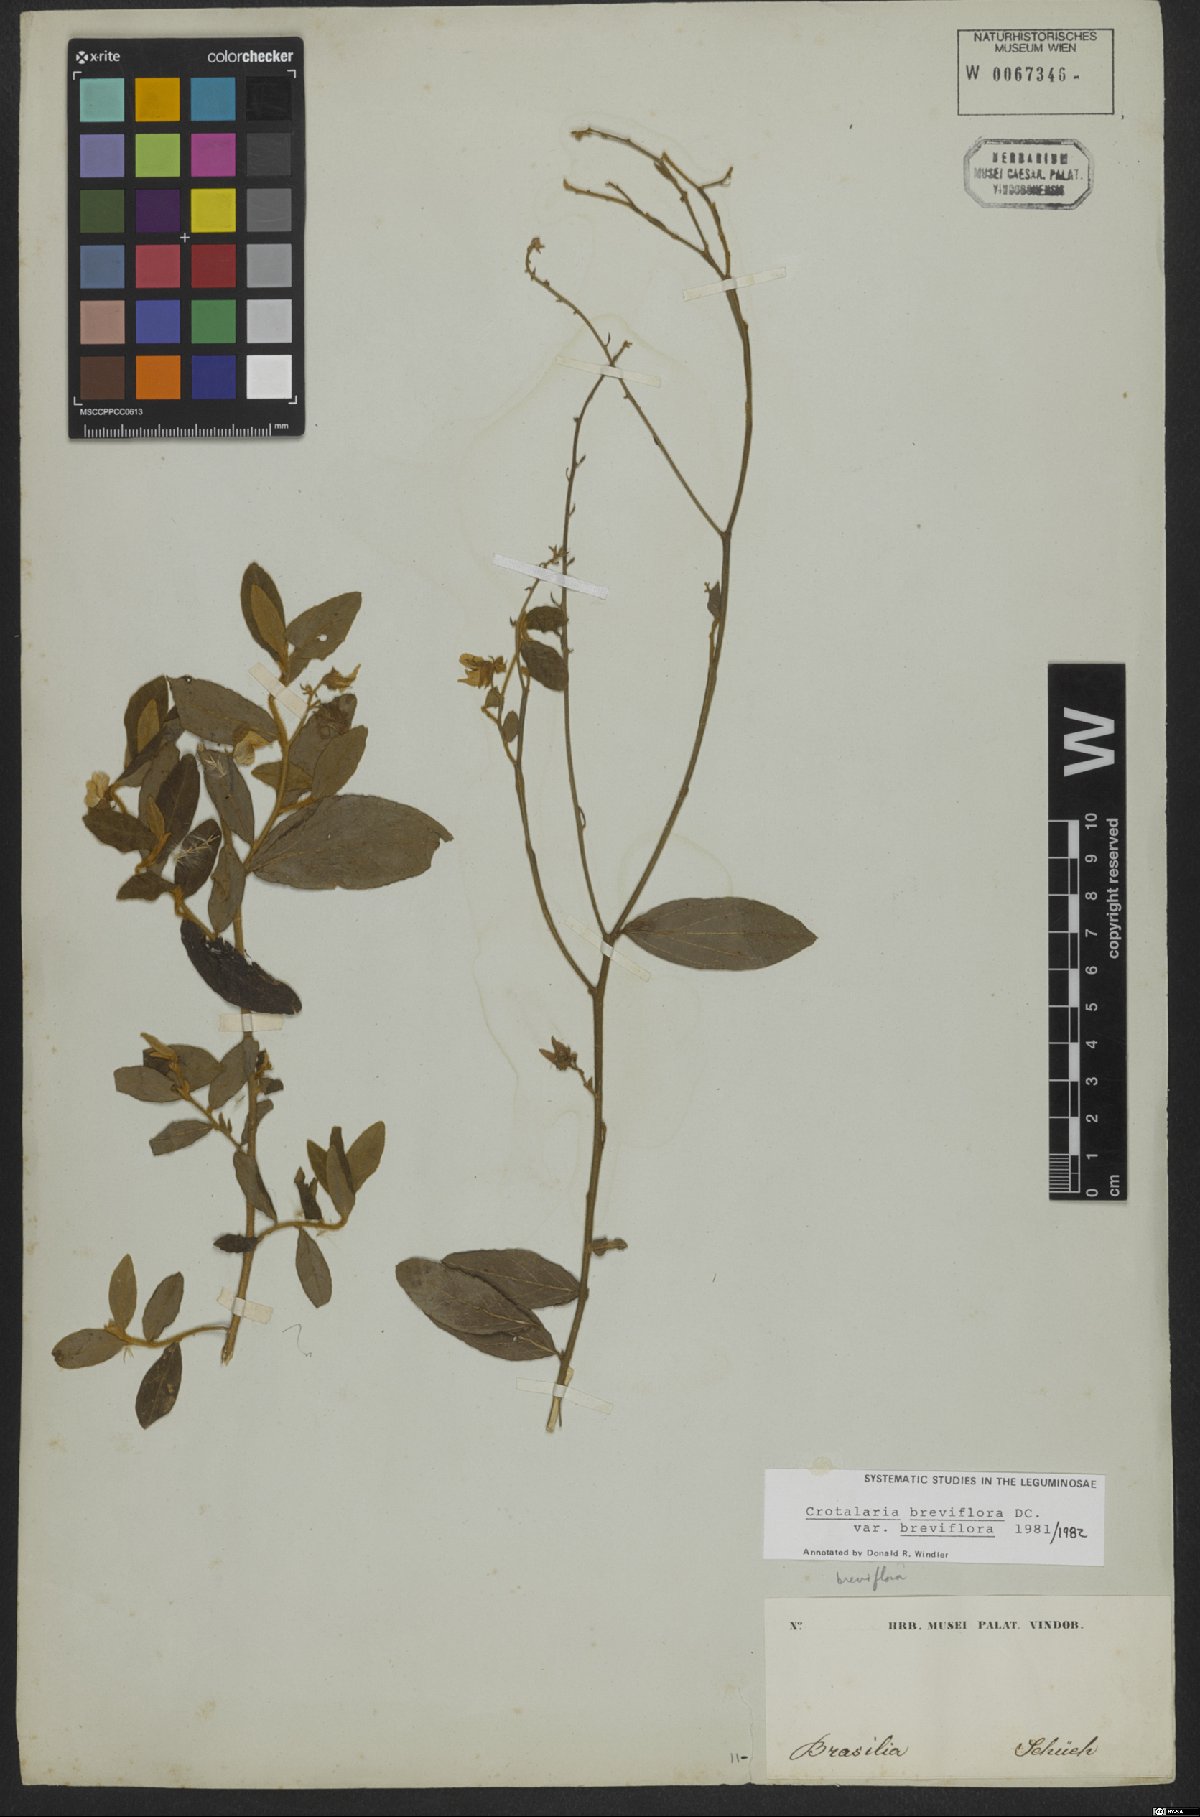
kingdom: Plantae
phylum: Tracheophyta
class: Magnoliopsida
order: Fabales
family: Fabaceae
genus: Crotalaria
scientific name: Crotalaria breviflora
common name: Short-flower crotalaria
